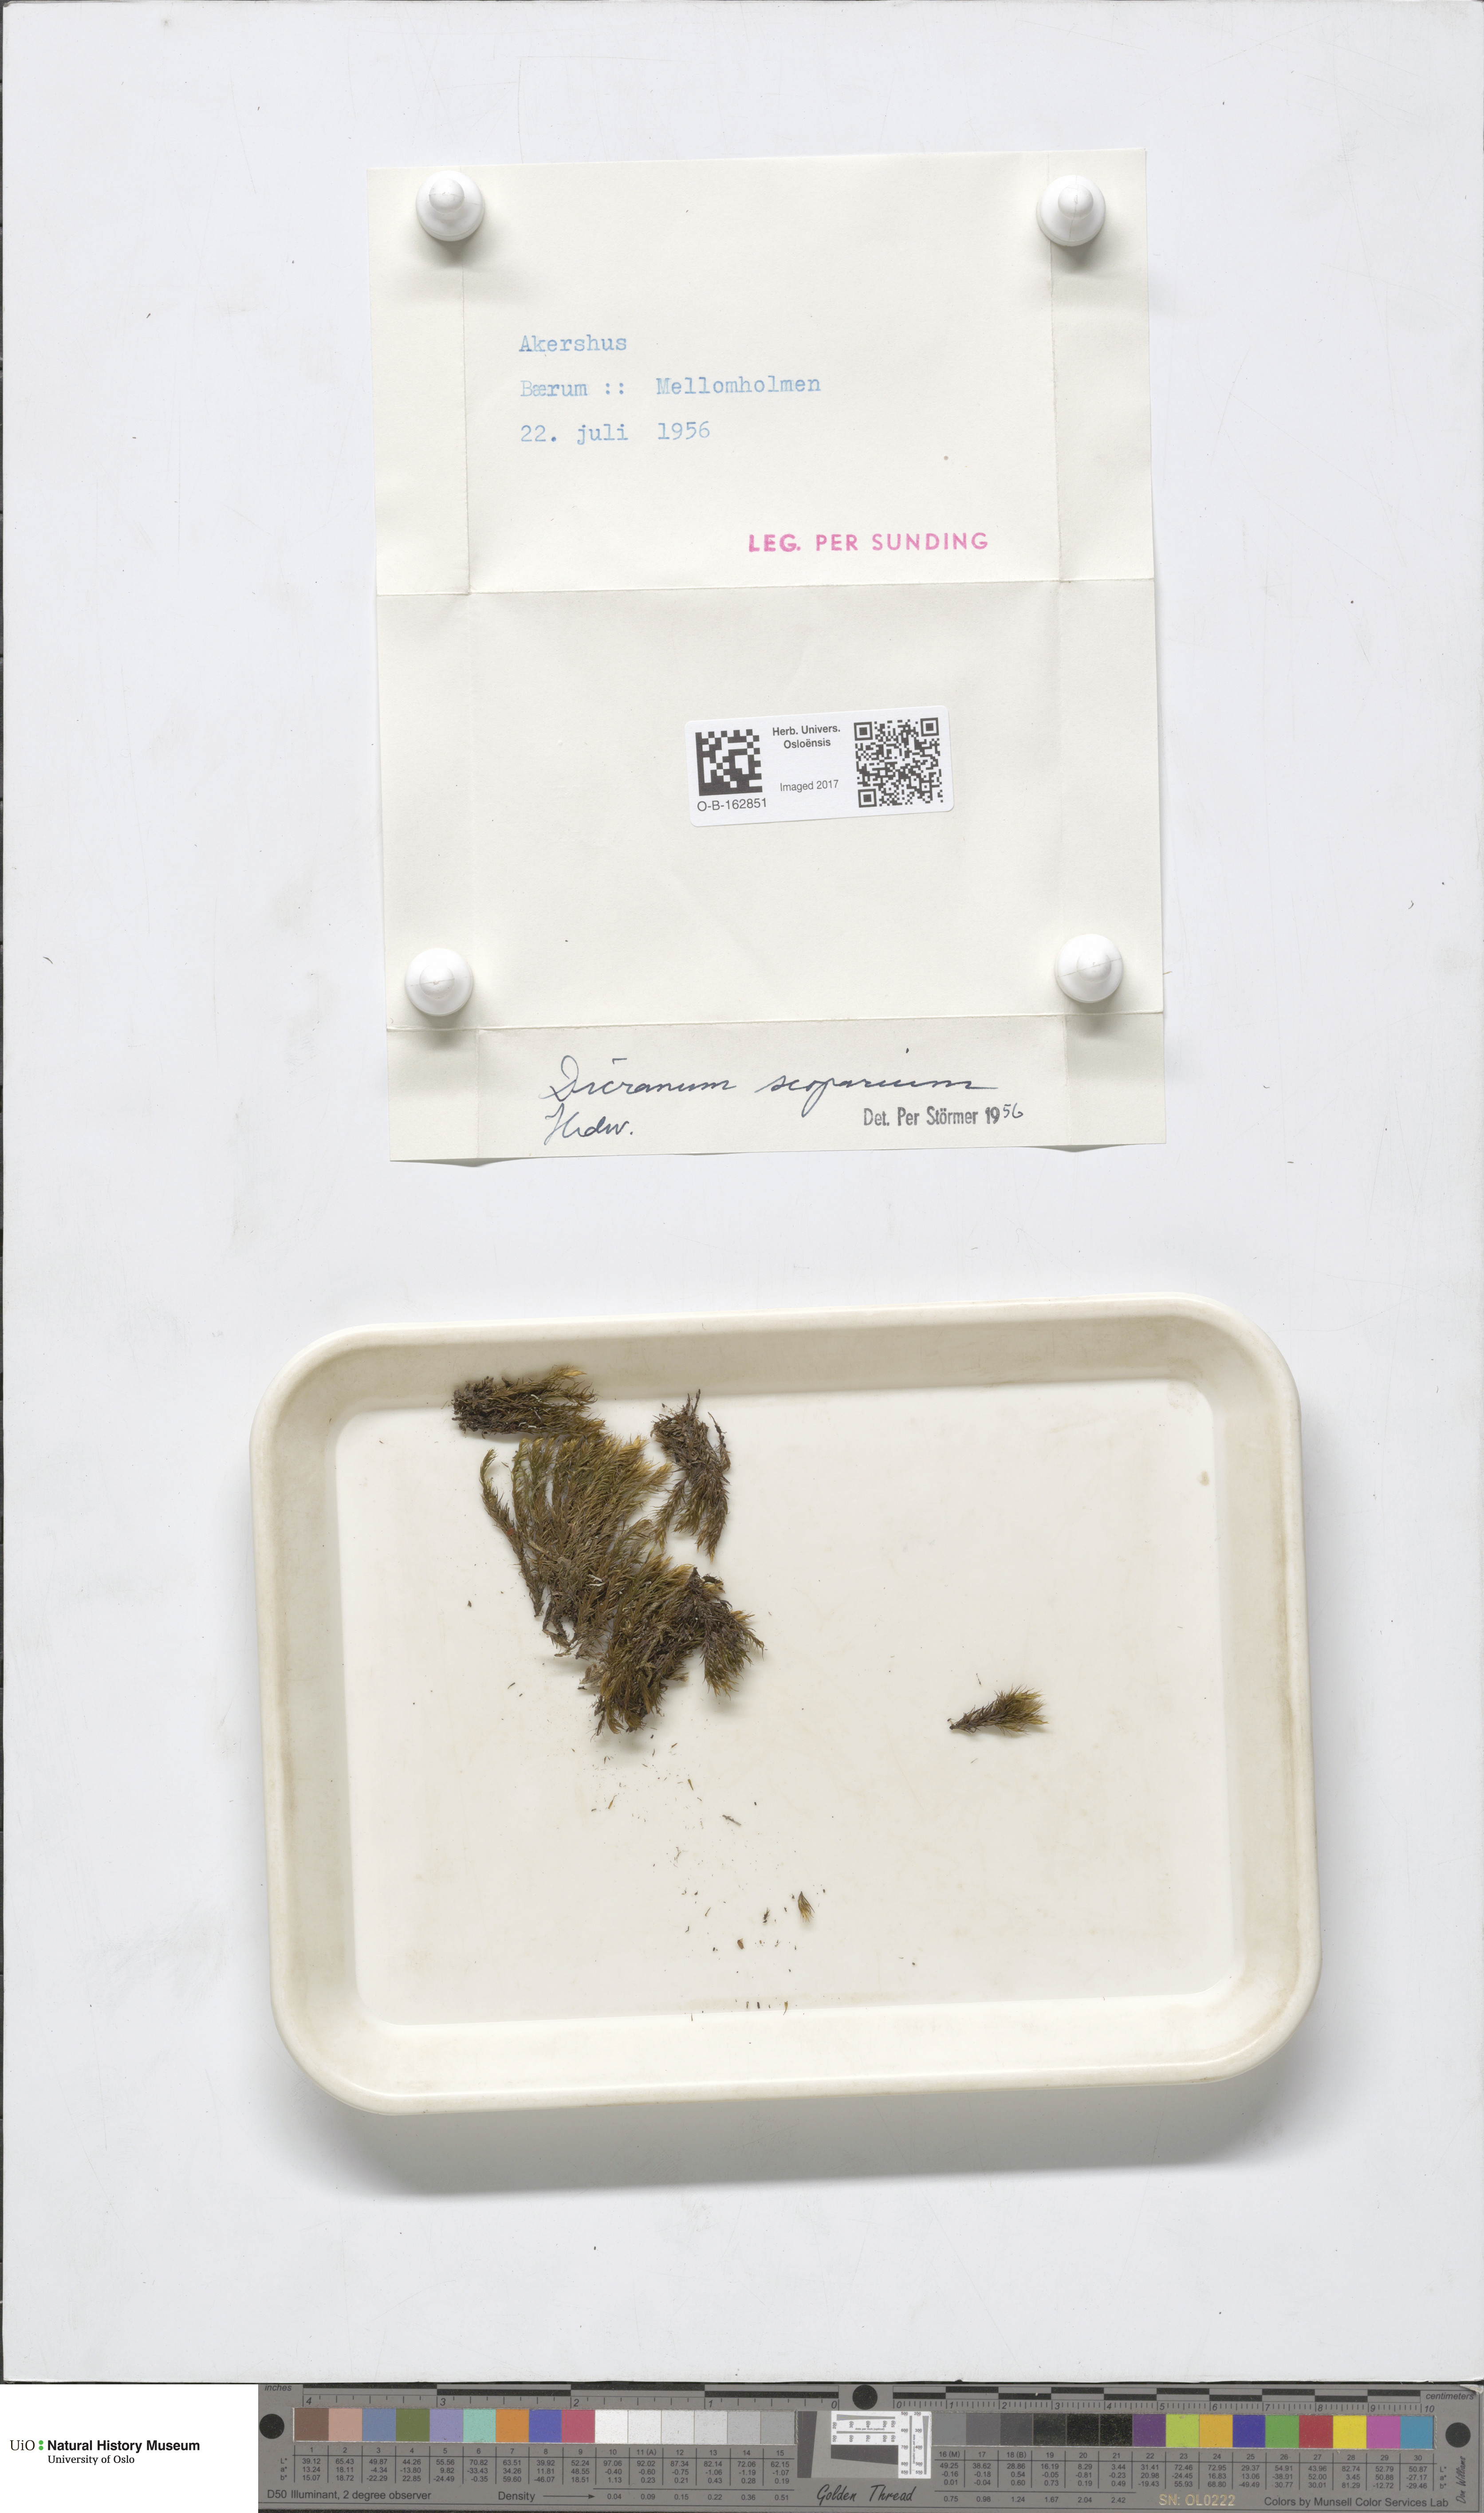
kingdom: Plantae
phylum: Bryophyta
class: Bryopsida
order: Dicranales
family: Dicranaceae
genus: Dicranum
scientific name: Dicranum scoparium
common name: Broom fork-moss
